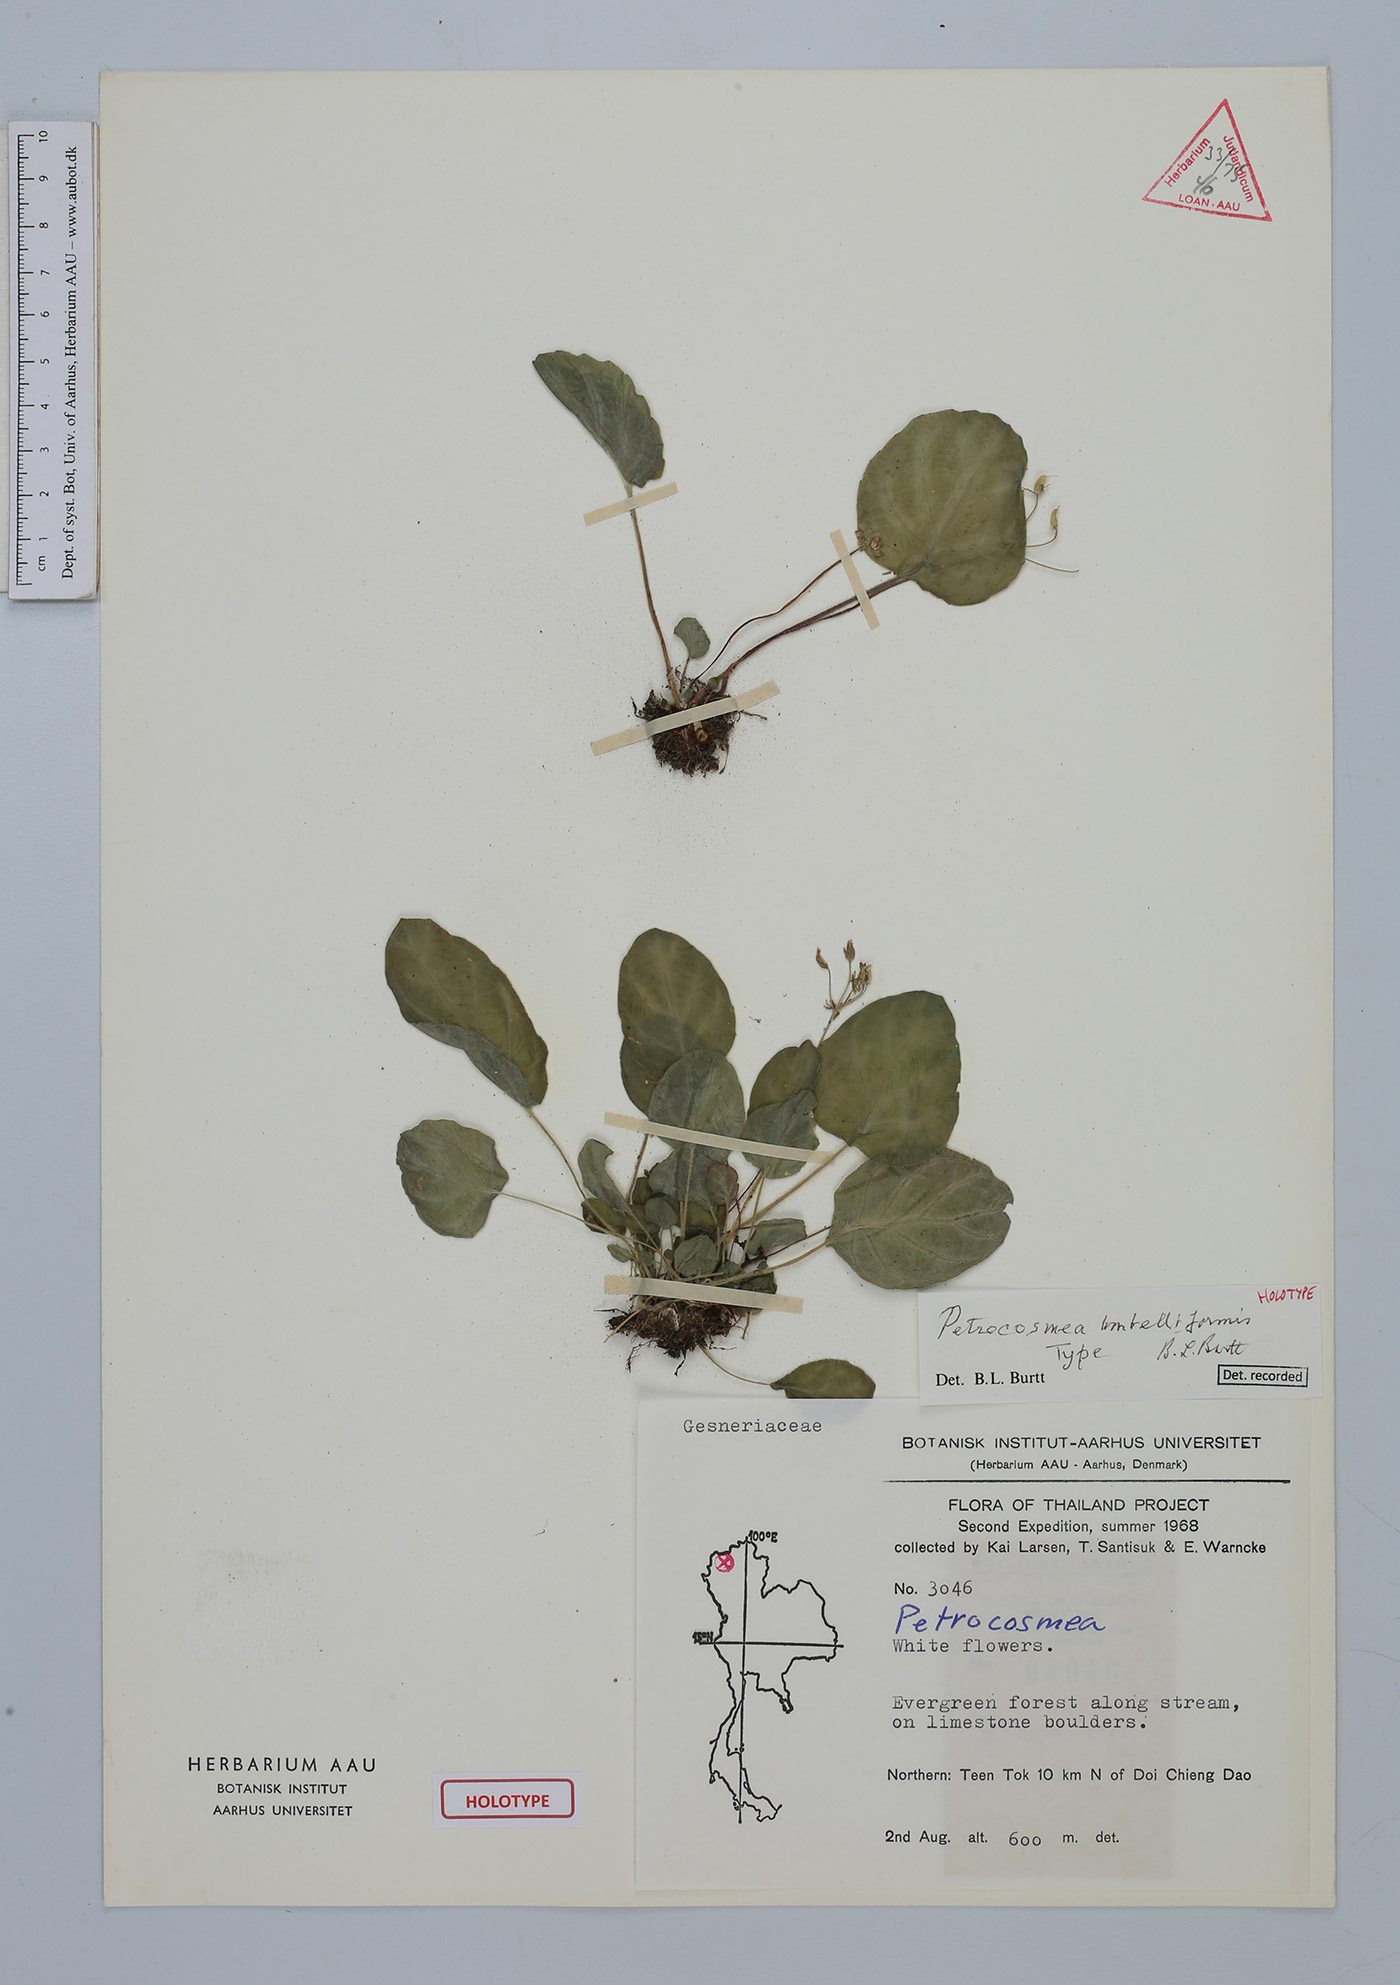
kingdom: Plantae
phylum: Tracheophyta
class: Magnoliopsida
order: Lamiales
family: Gesneriaceae
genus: Petrocosmea
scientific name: Petrocosmea umbelliformis
